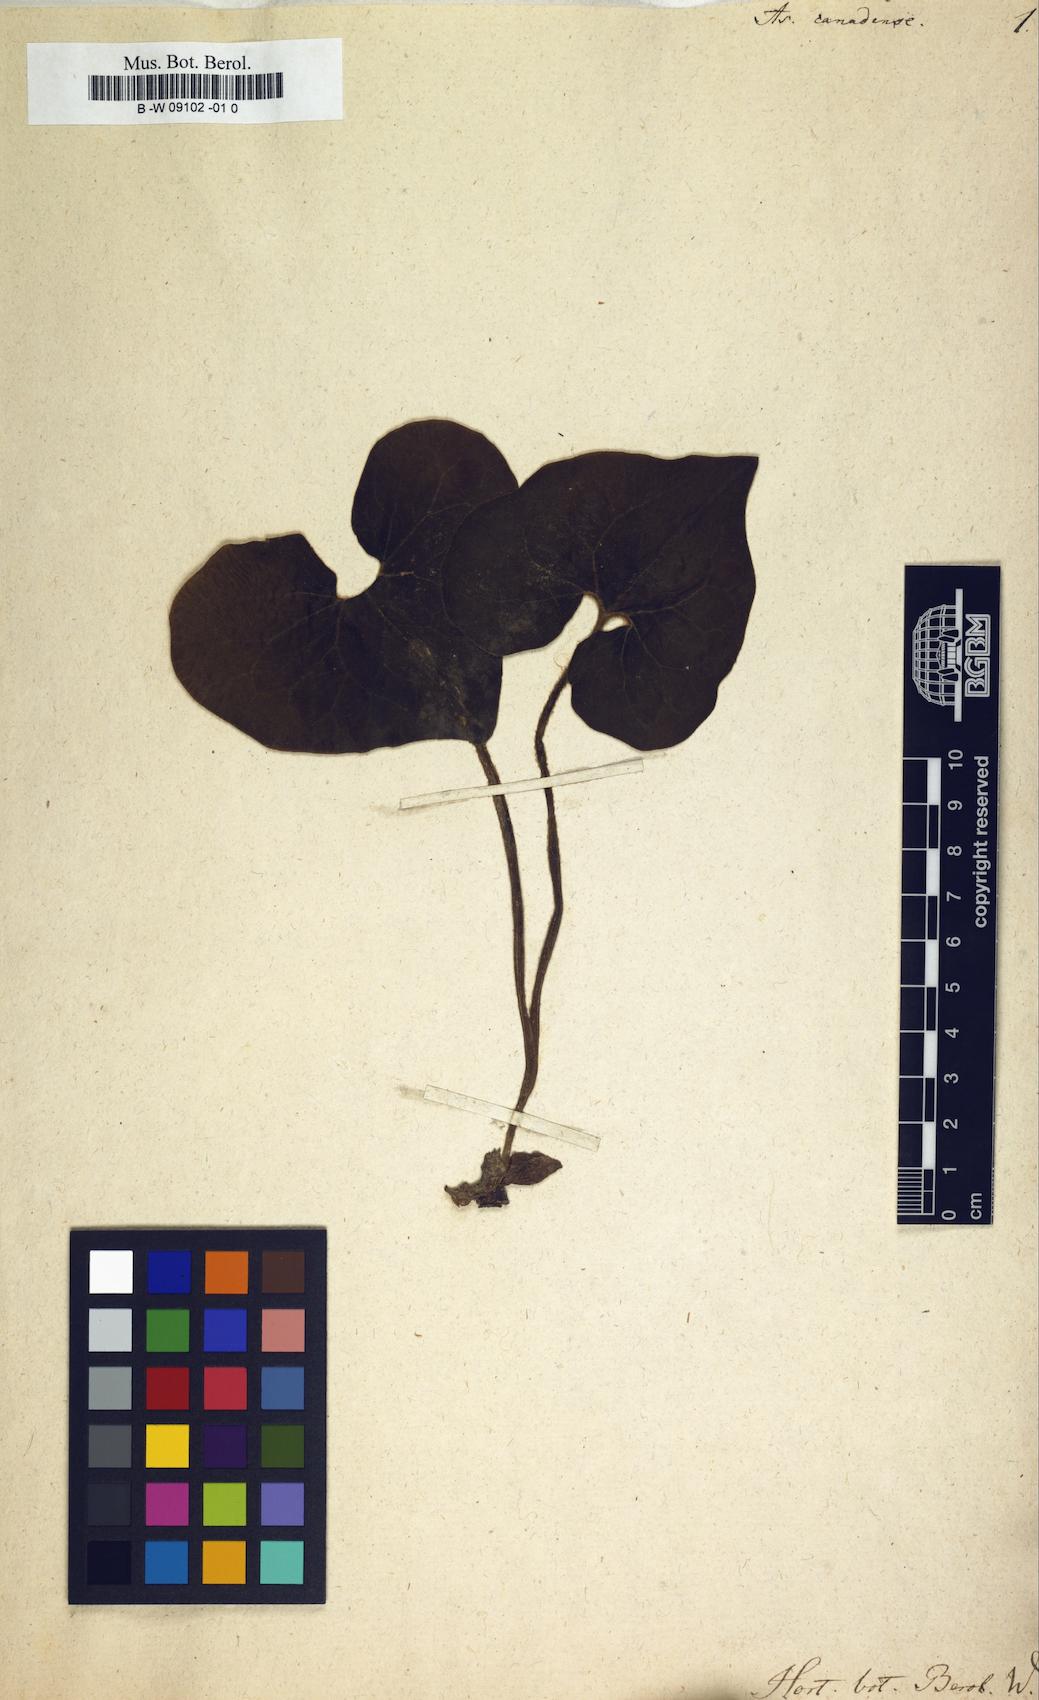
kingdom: Plantae
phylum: Tracheophyta
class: Magnoliopsida
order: Piperales
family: Aristolochiaceae
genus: Asarum
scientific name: Asarum canadense
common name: Wild ginger
